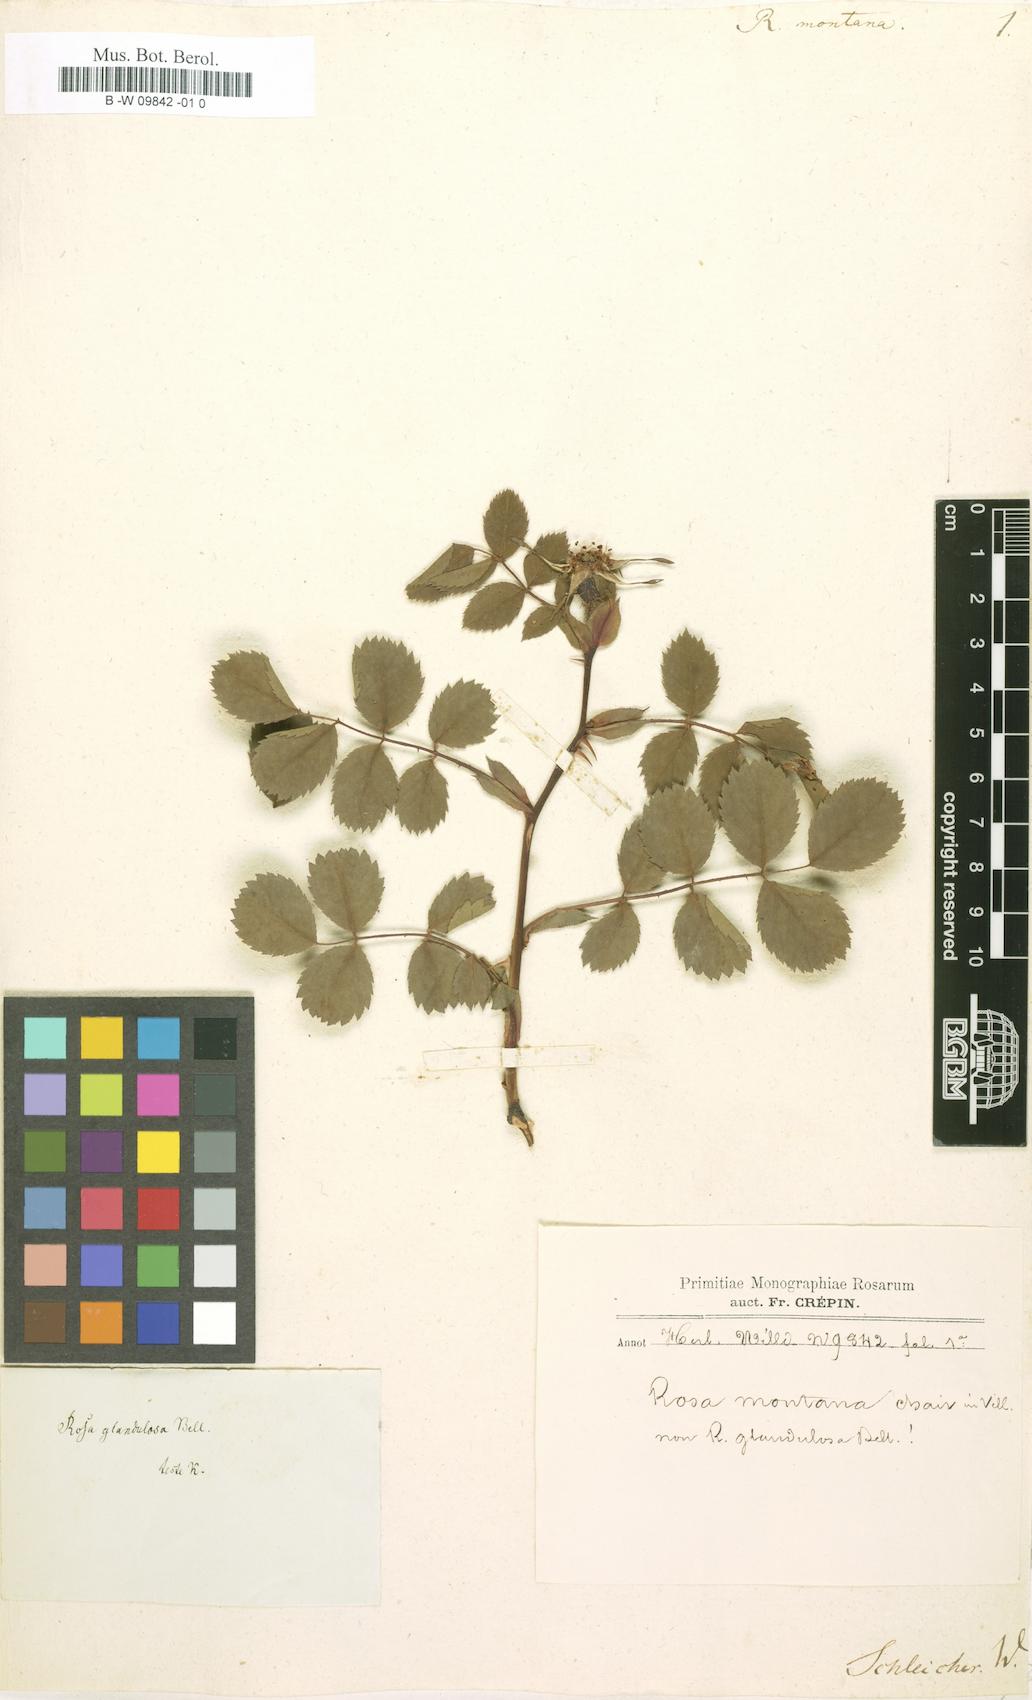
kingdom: Plantae
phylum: Tracheophyta
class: Magnoliopsida
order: Rosales
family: Rosaceae
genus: Rosa
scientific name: Rosa montana
